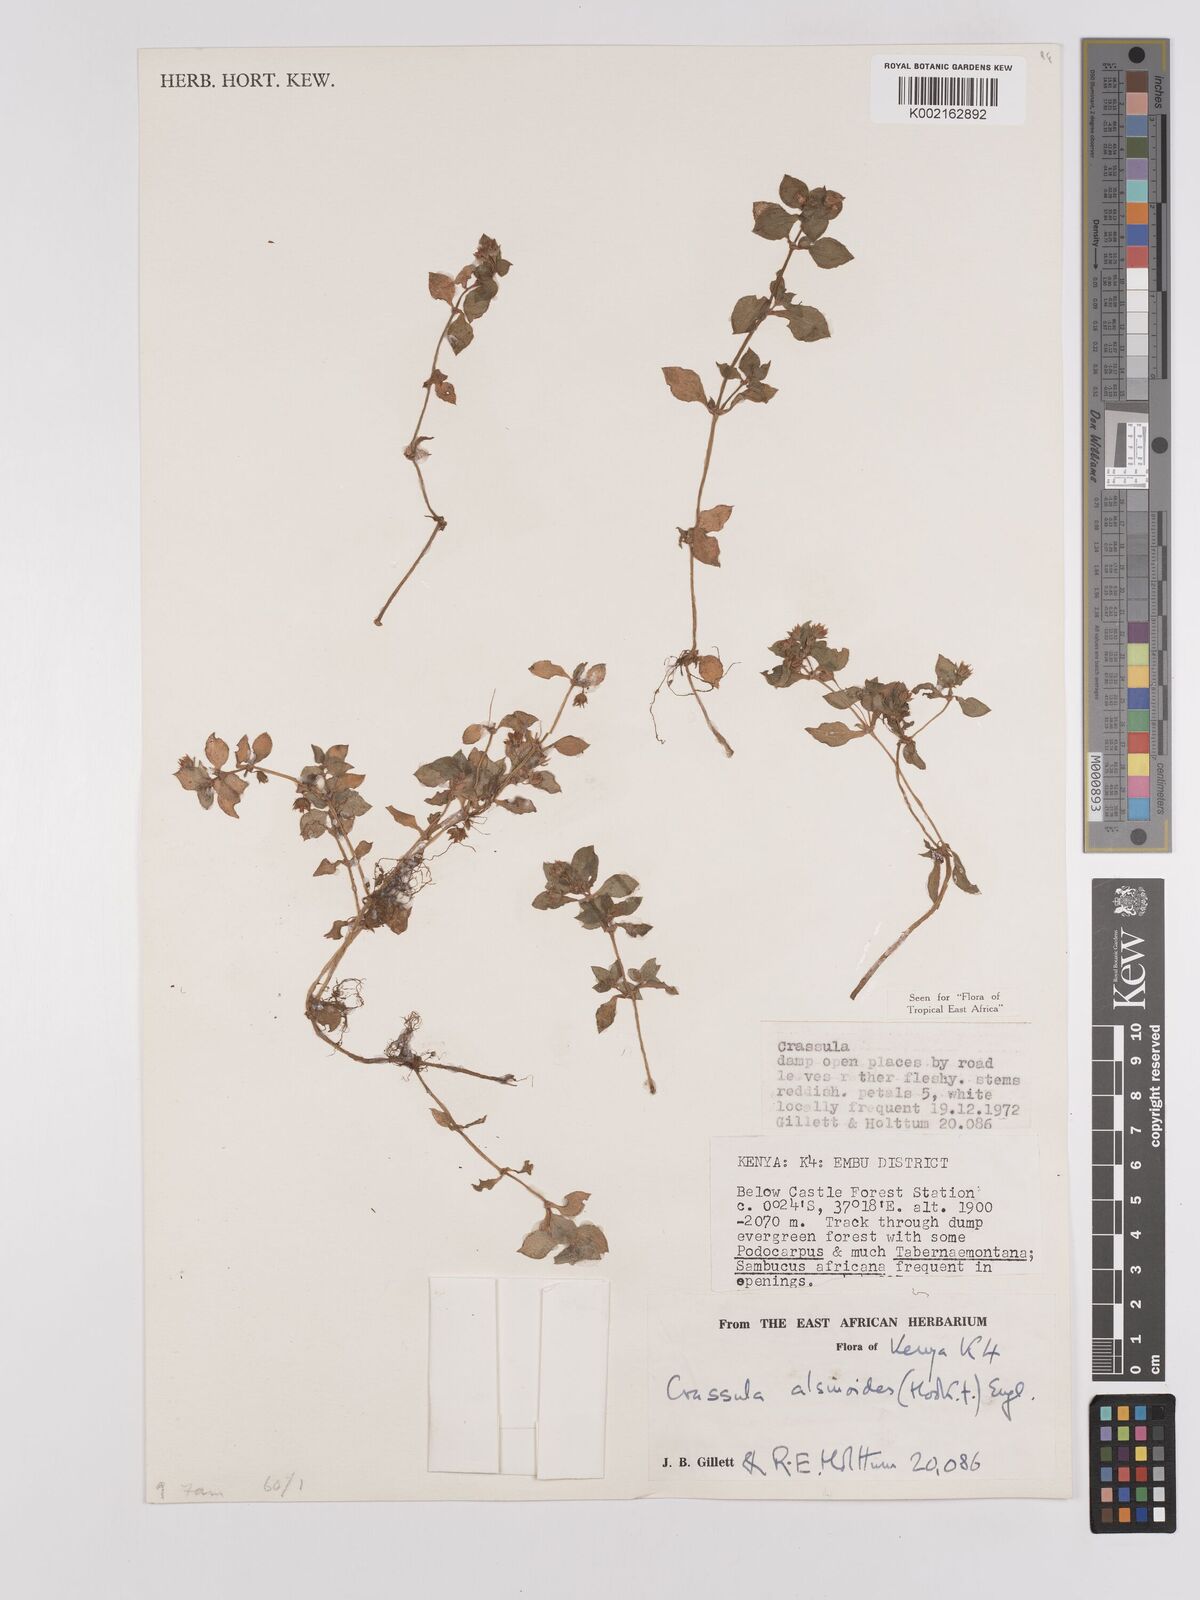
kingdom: Plantae
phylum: Tracheophyta
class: Magnoliopsida
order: Saxifragales
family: Crassulaceae
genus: Crassula
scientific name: Crassula alsinoides
